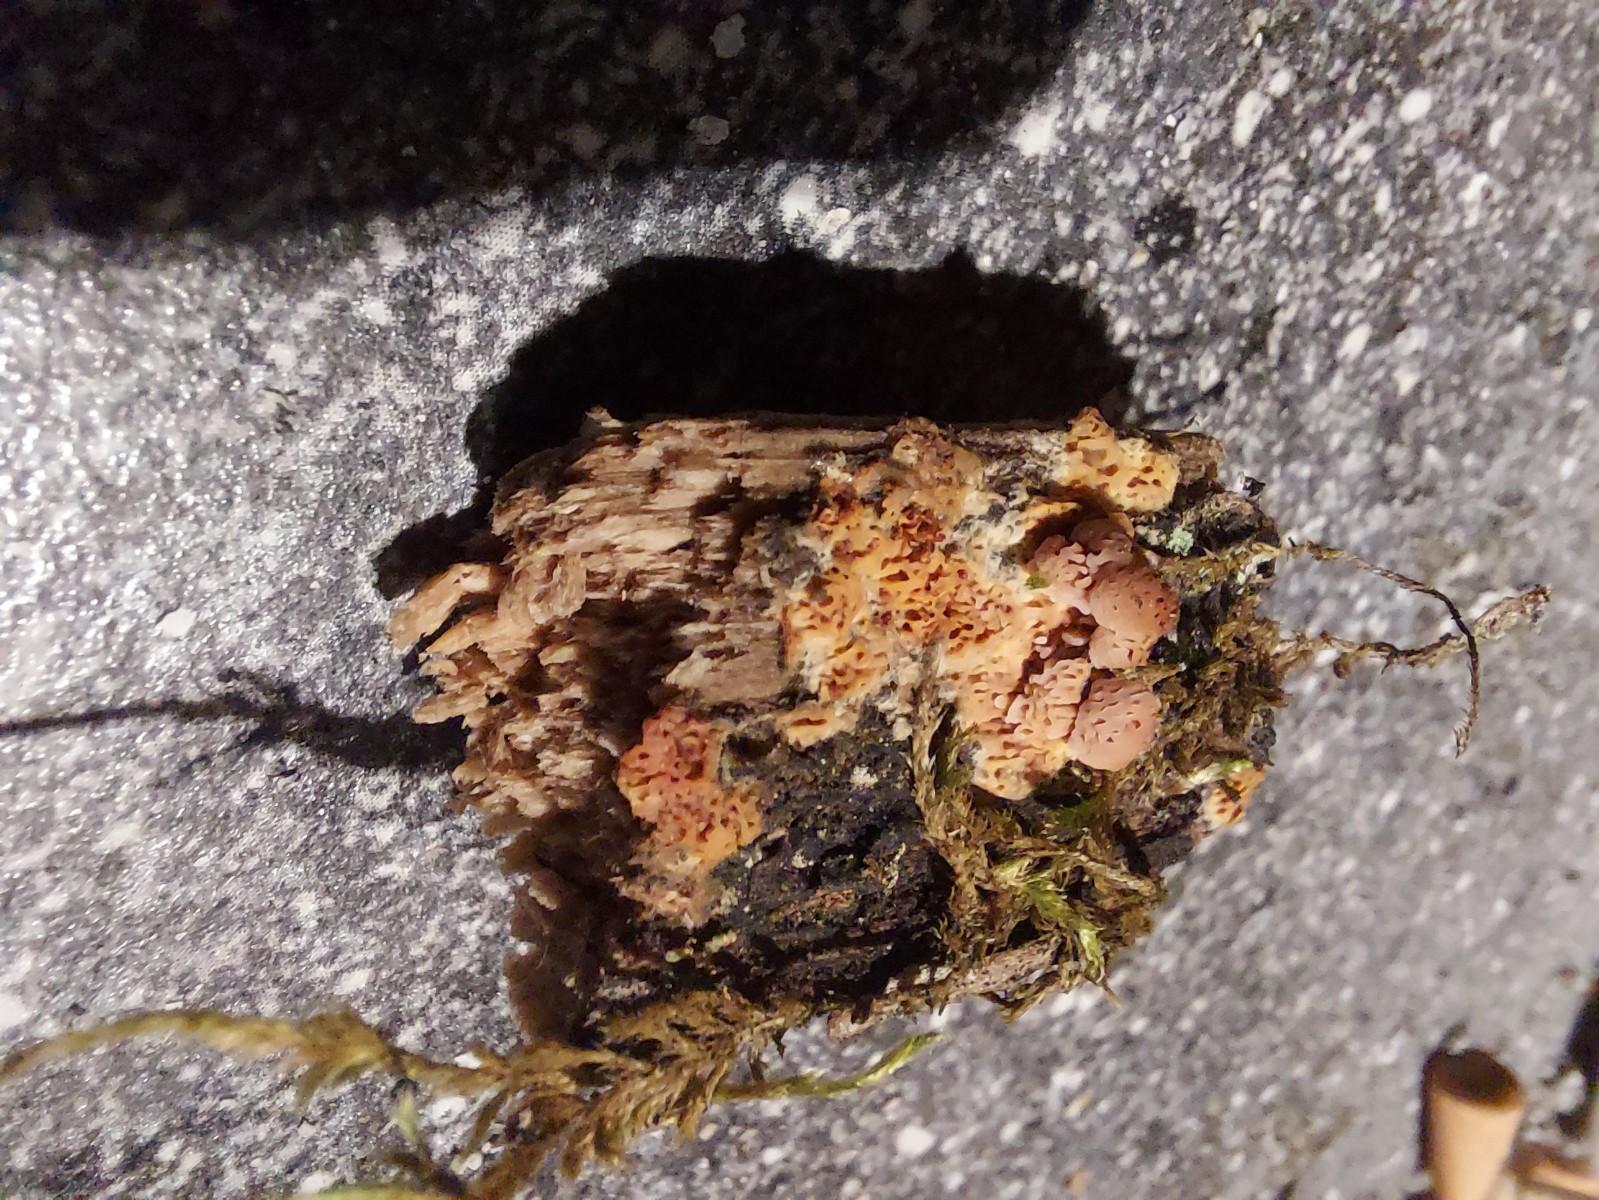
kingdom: Fungi
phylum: Basidiomycota
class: Agaricomycetes
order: Polyporales
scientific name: Polyporales
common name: poresvampordenen
